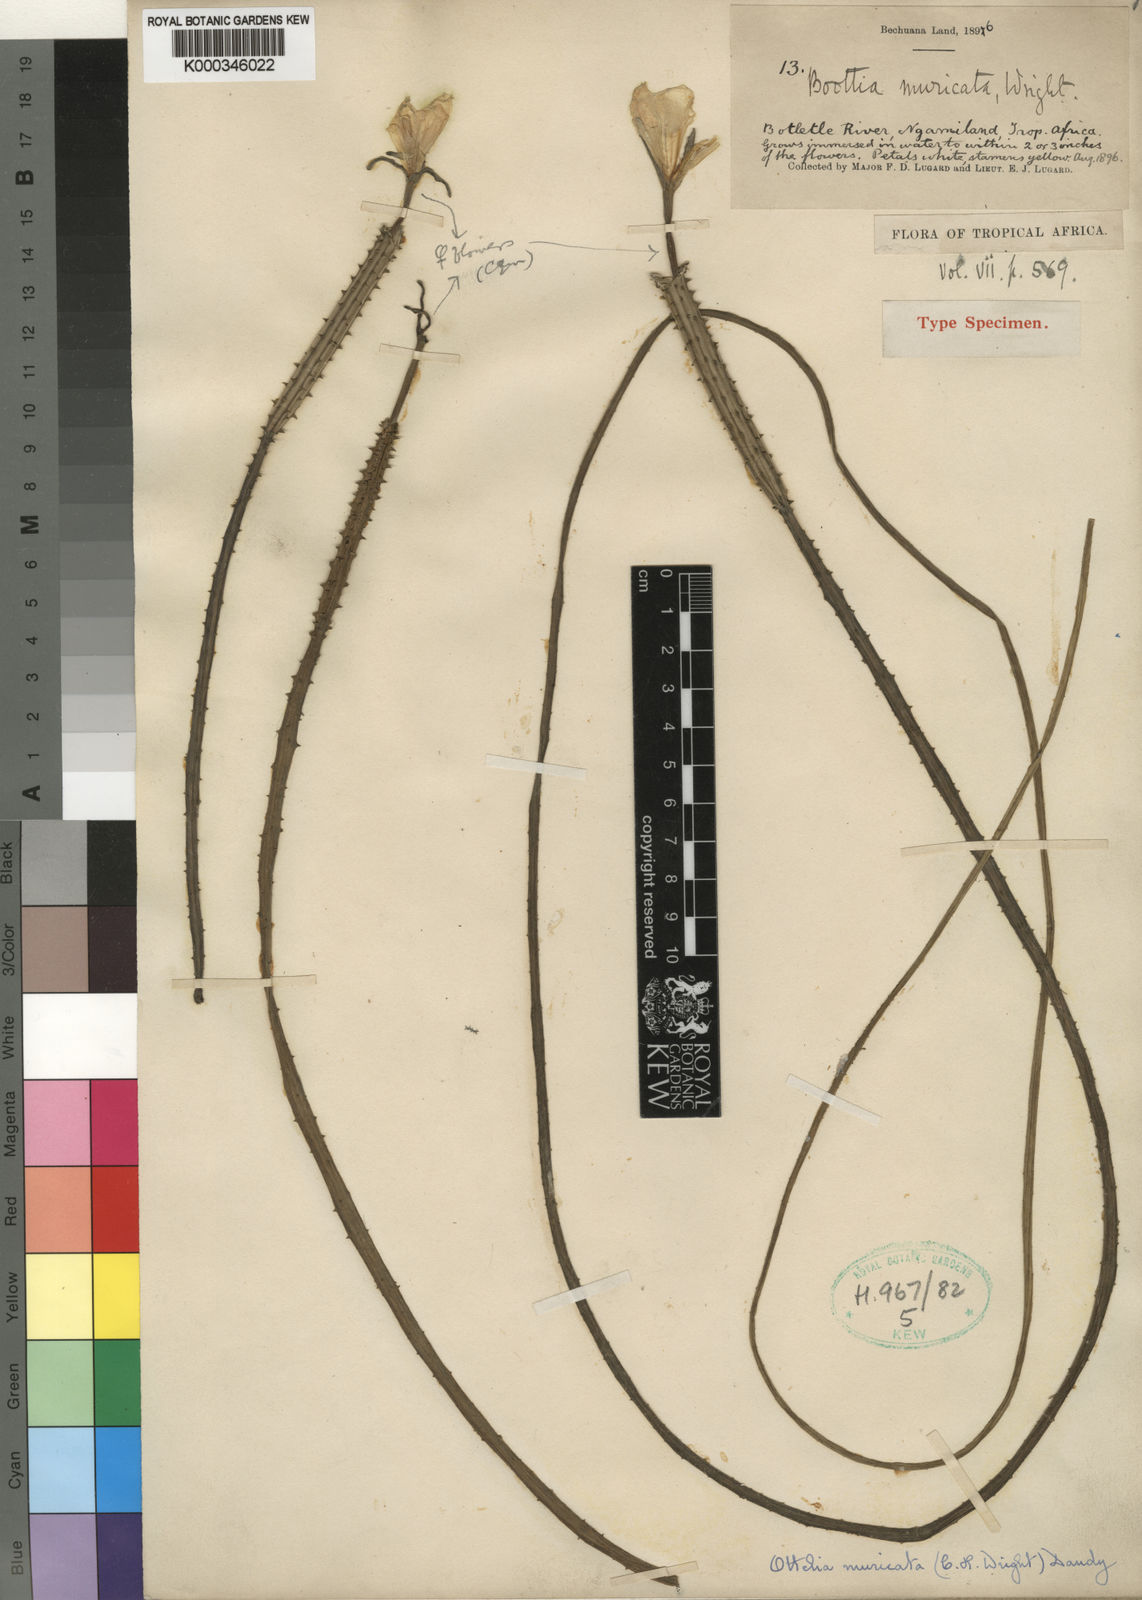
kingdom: Plantae
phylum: Tracheophyta
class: Liliopsida
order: Alismatales
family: Hydrocharitaceae
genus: Ottelia
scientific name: Ottelia muricata
